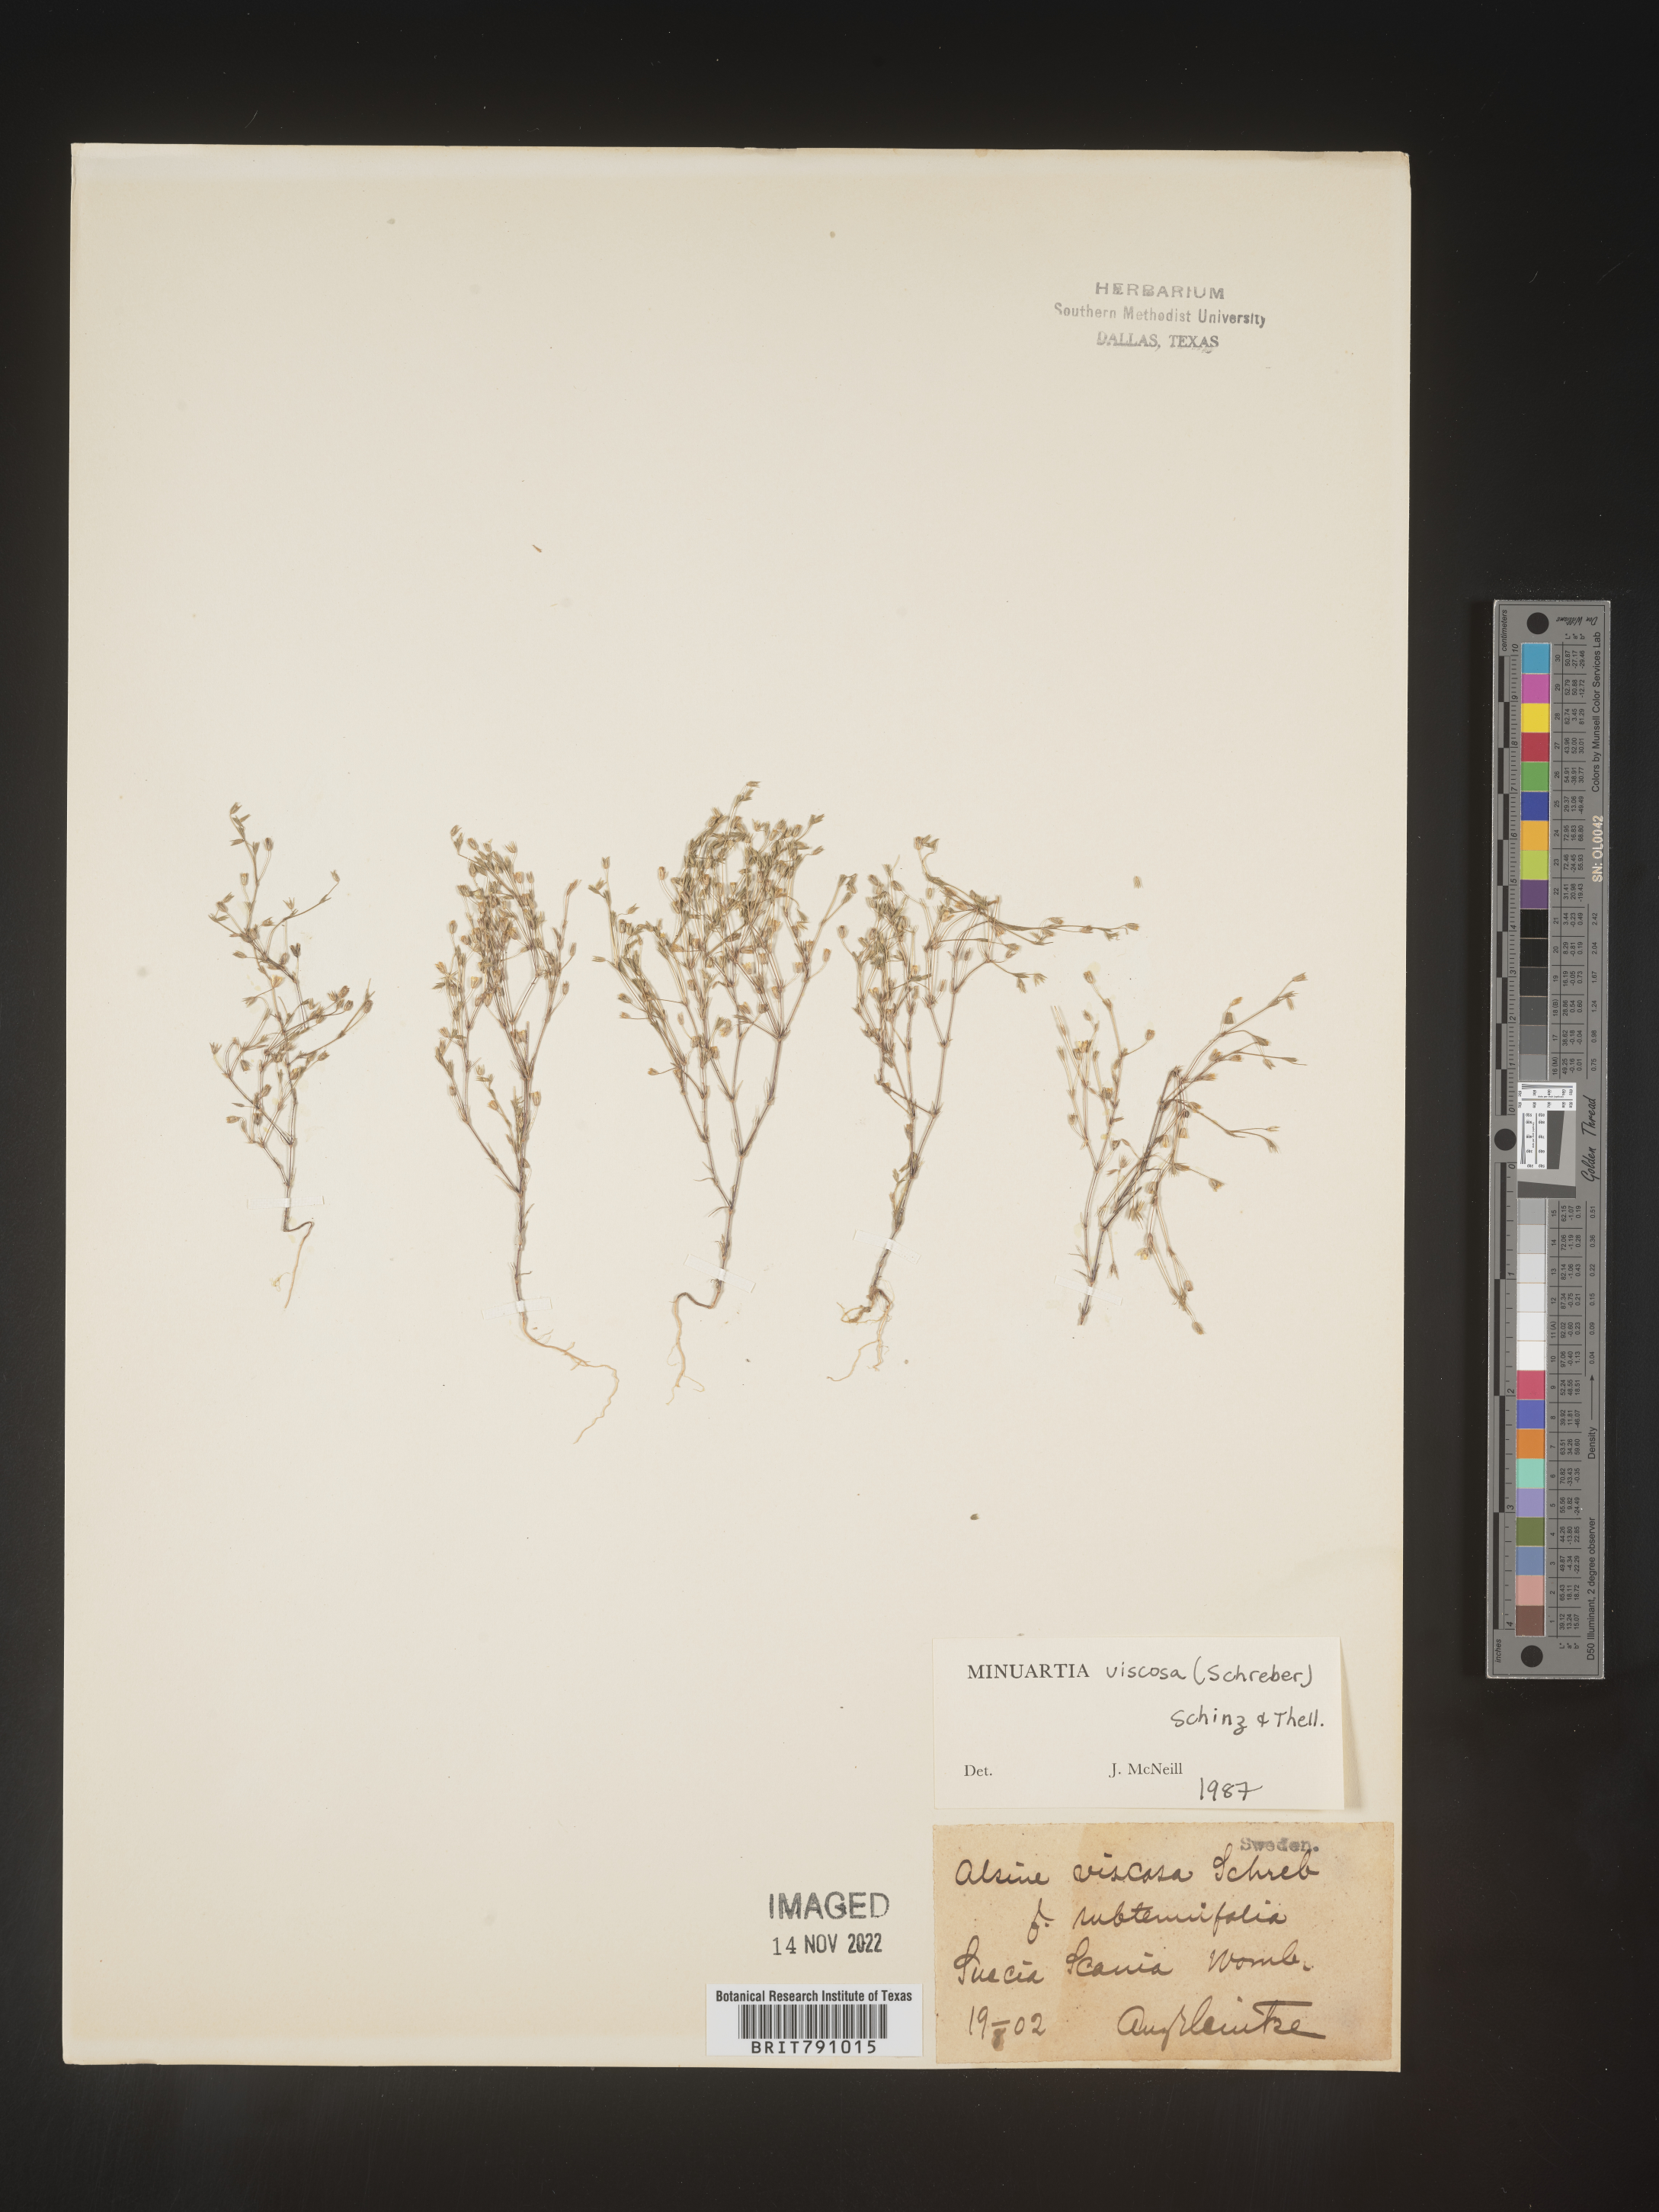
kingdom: Plantae
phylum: Tracheophyta
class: Magnoliopsida
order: Caryophyllales
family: Caryophyllaceae
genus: Minuartia
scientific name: Minuartia
